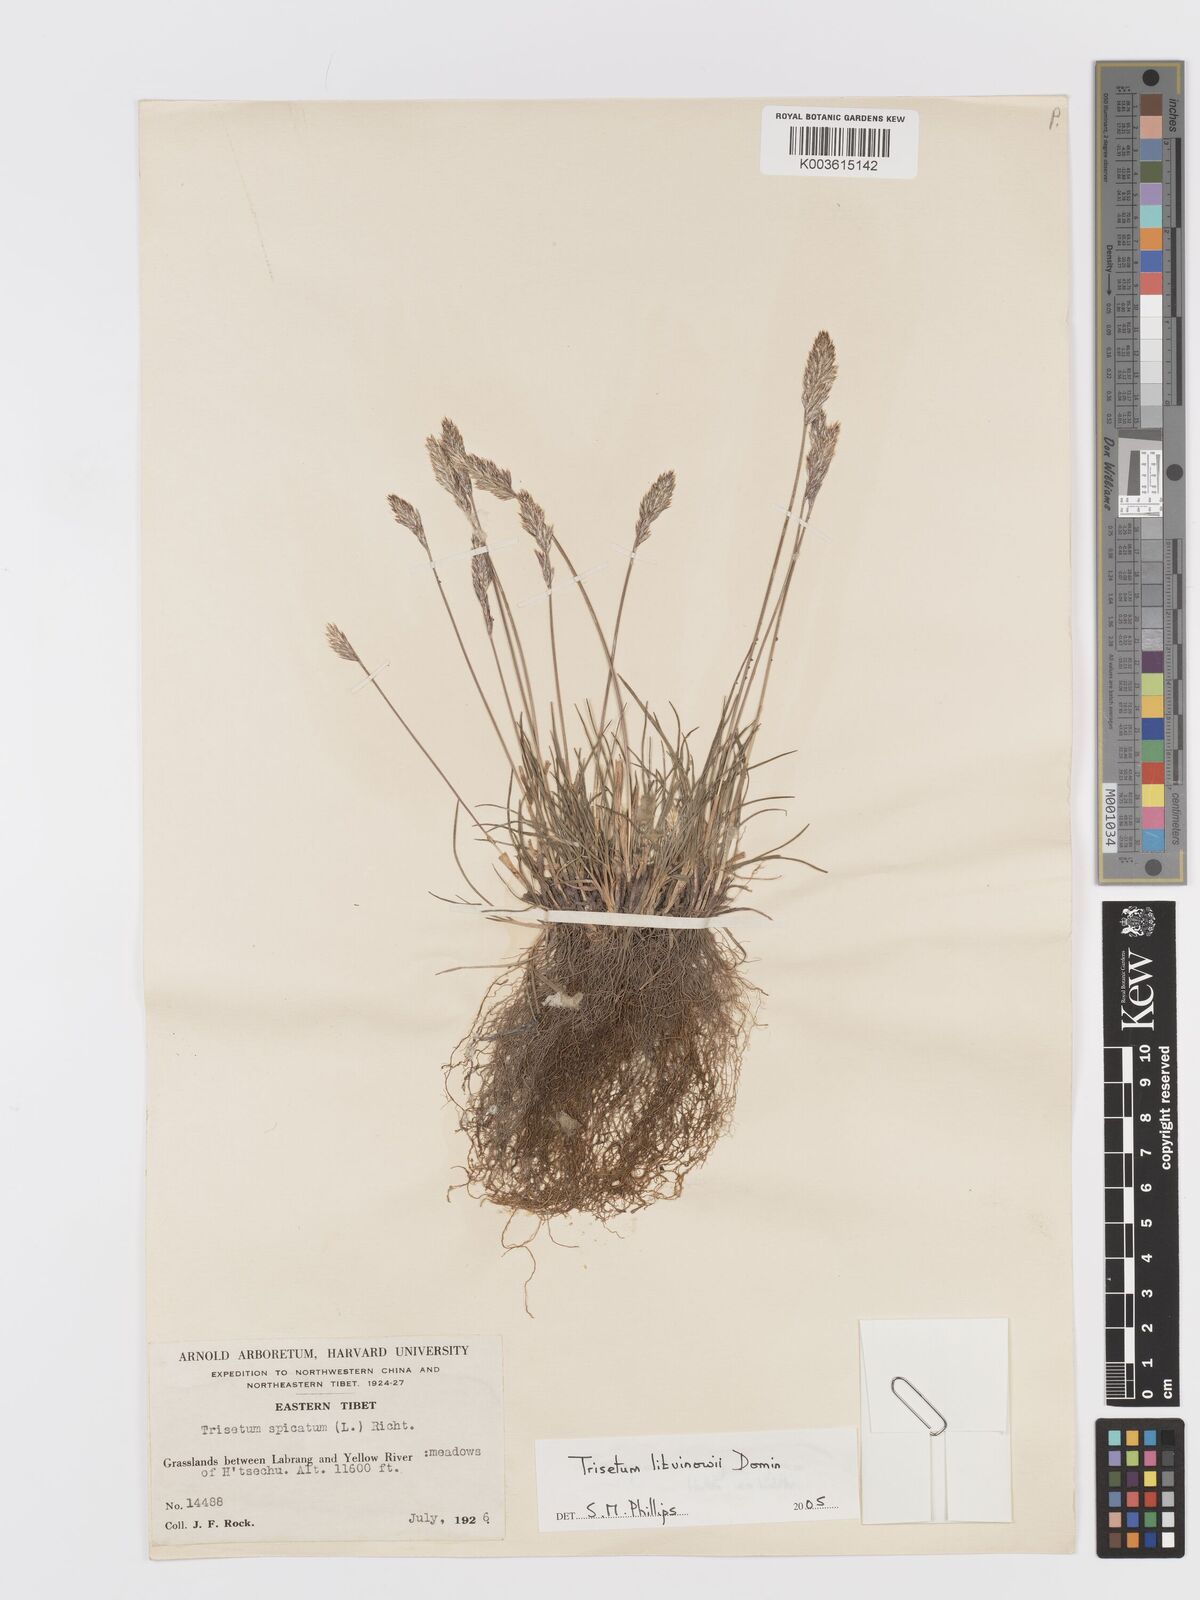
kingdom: Plantae
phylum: Tracheophyta
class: Liliopsida
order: Poales
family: Poaceae
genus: Koeleria
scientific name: Koeleria argentea
